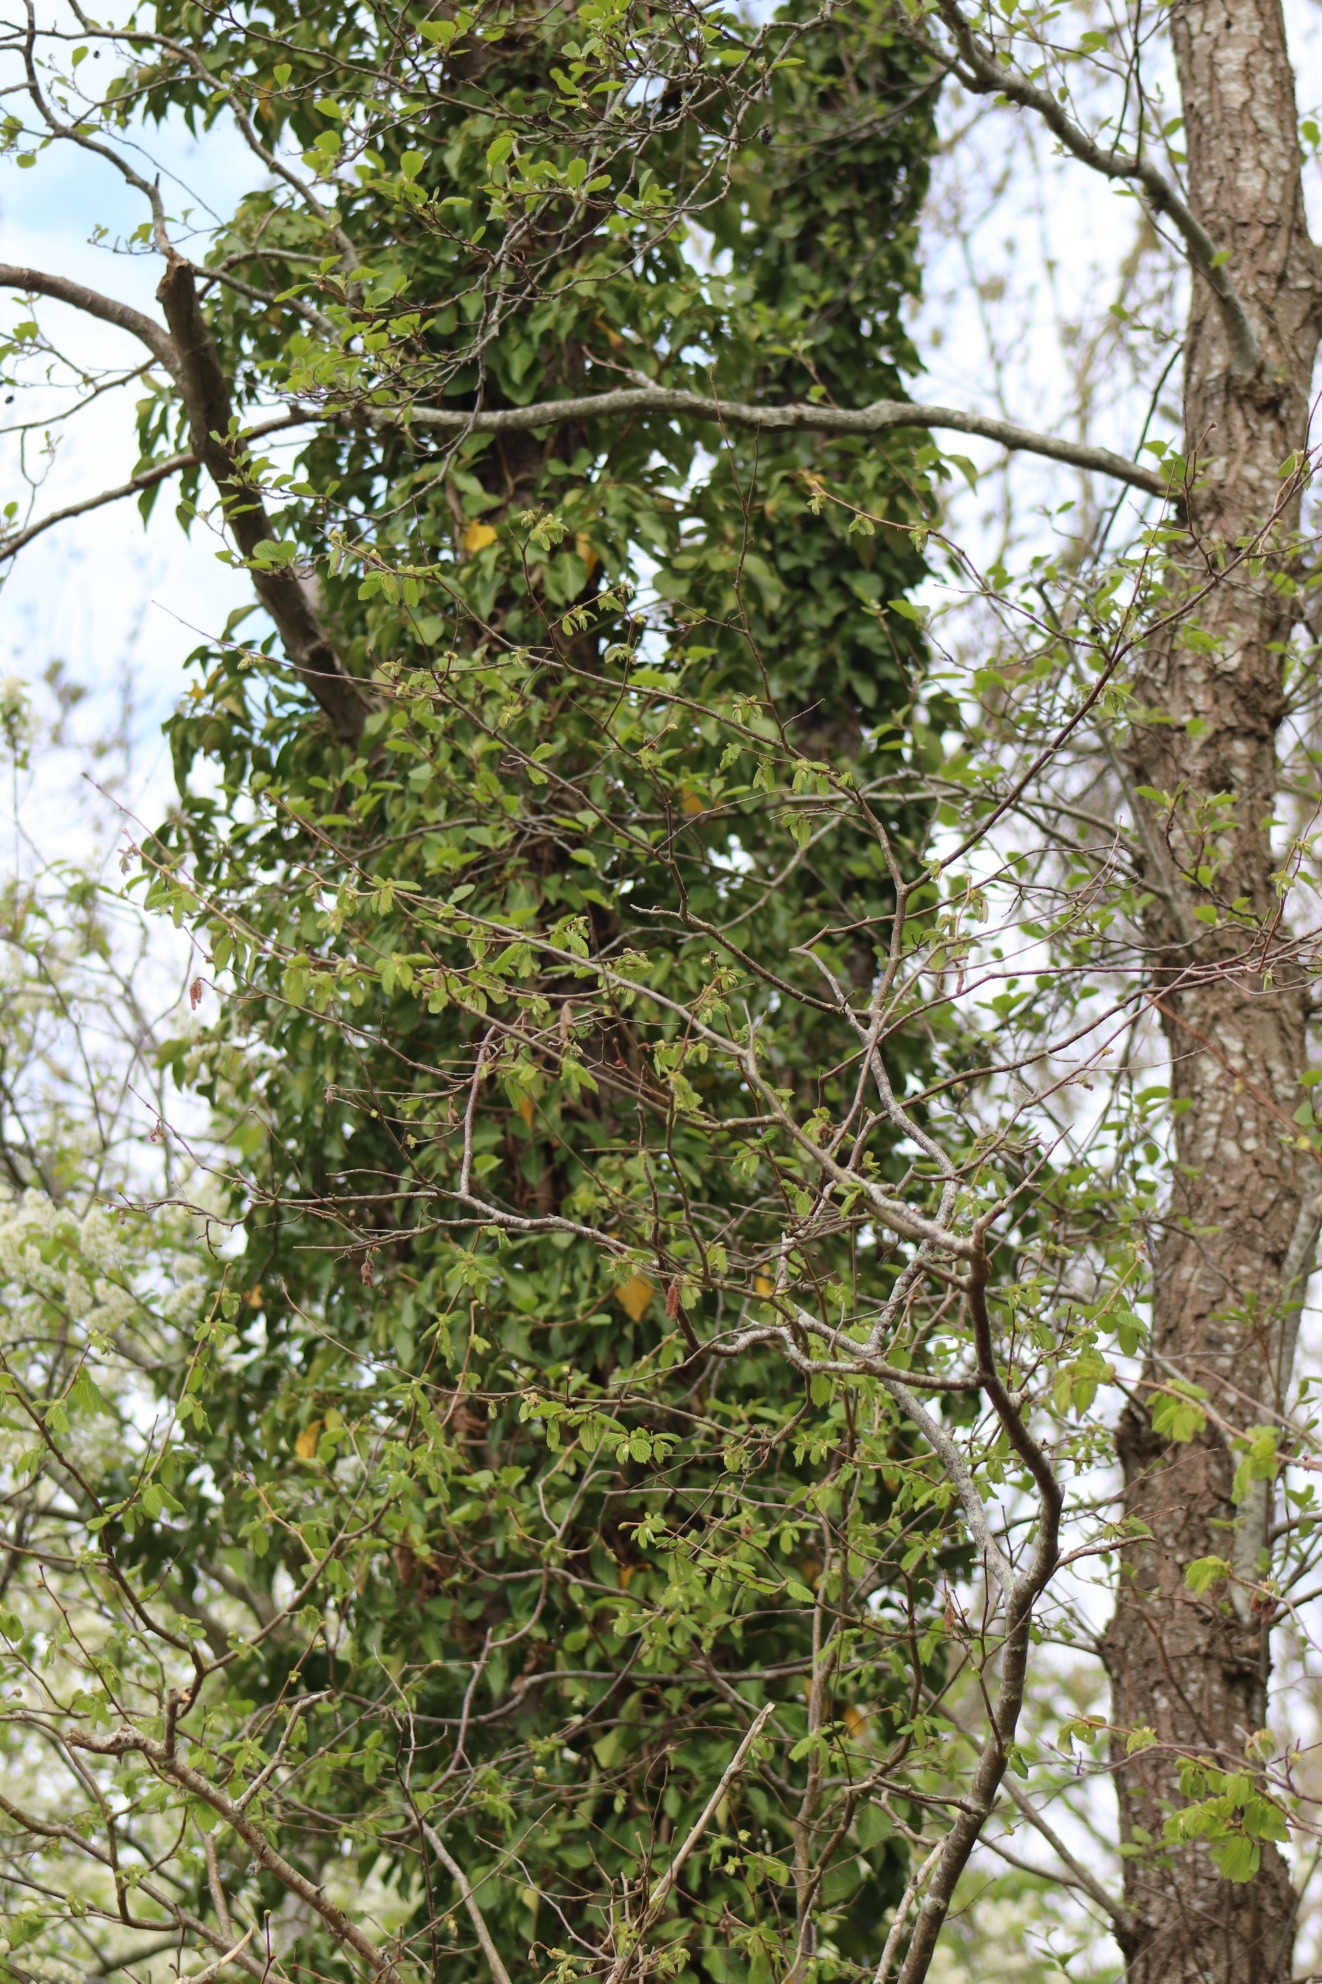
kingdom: Plantae
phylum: Tracheophyta
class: Magnoliopsida
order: Apiales
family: Araliaceae
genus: Hedera
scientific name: Hedera helix
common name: Vedbend
